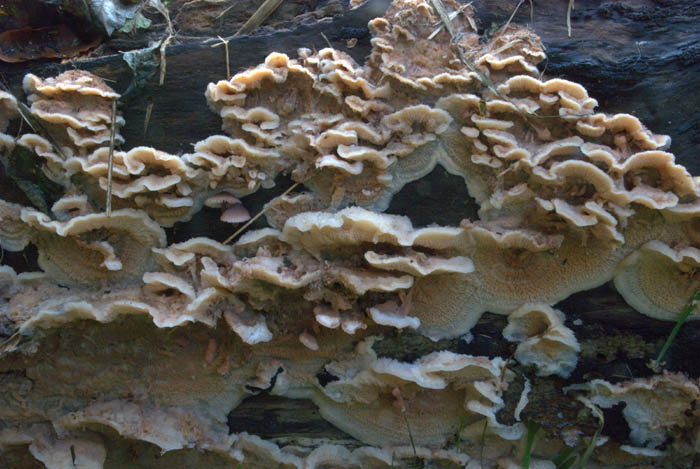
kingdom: Fungi
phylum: Basidiomycota
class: Agaricomycetes
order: Polyporales
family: Meruliaceae
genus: Phlebia
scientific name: Phlebia tremellosa
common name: bævrende åresvamp
